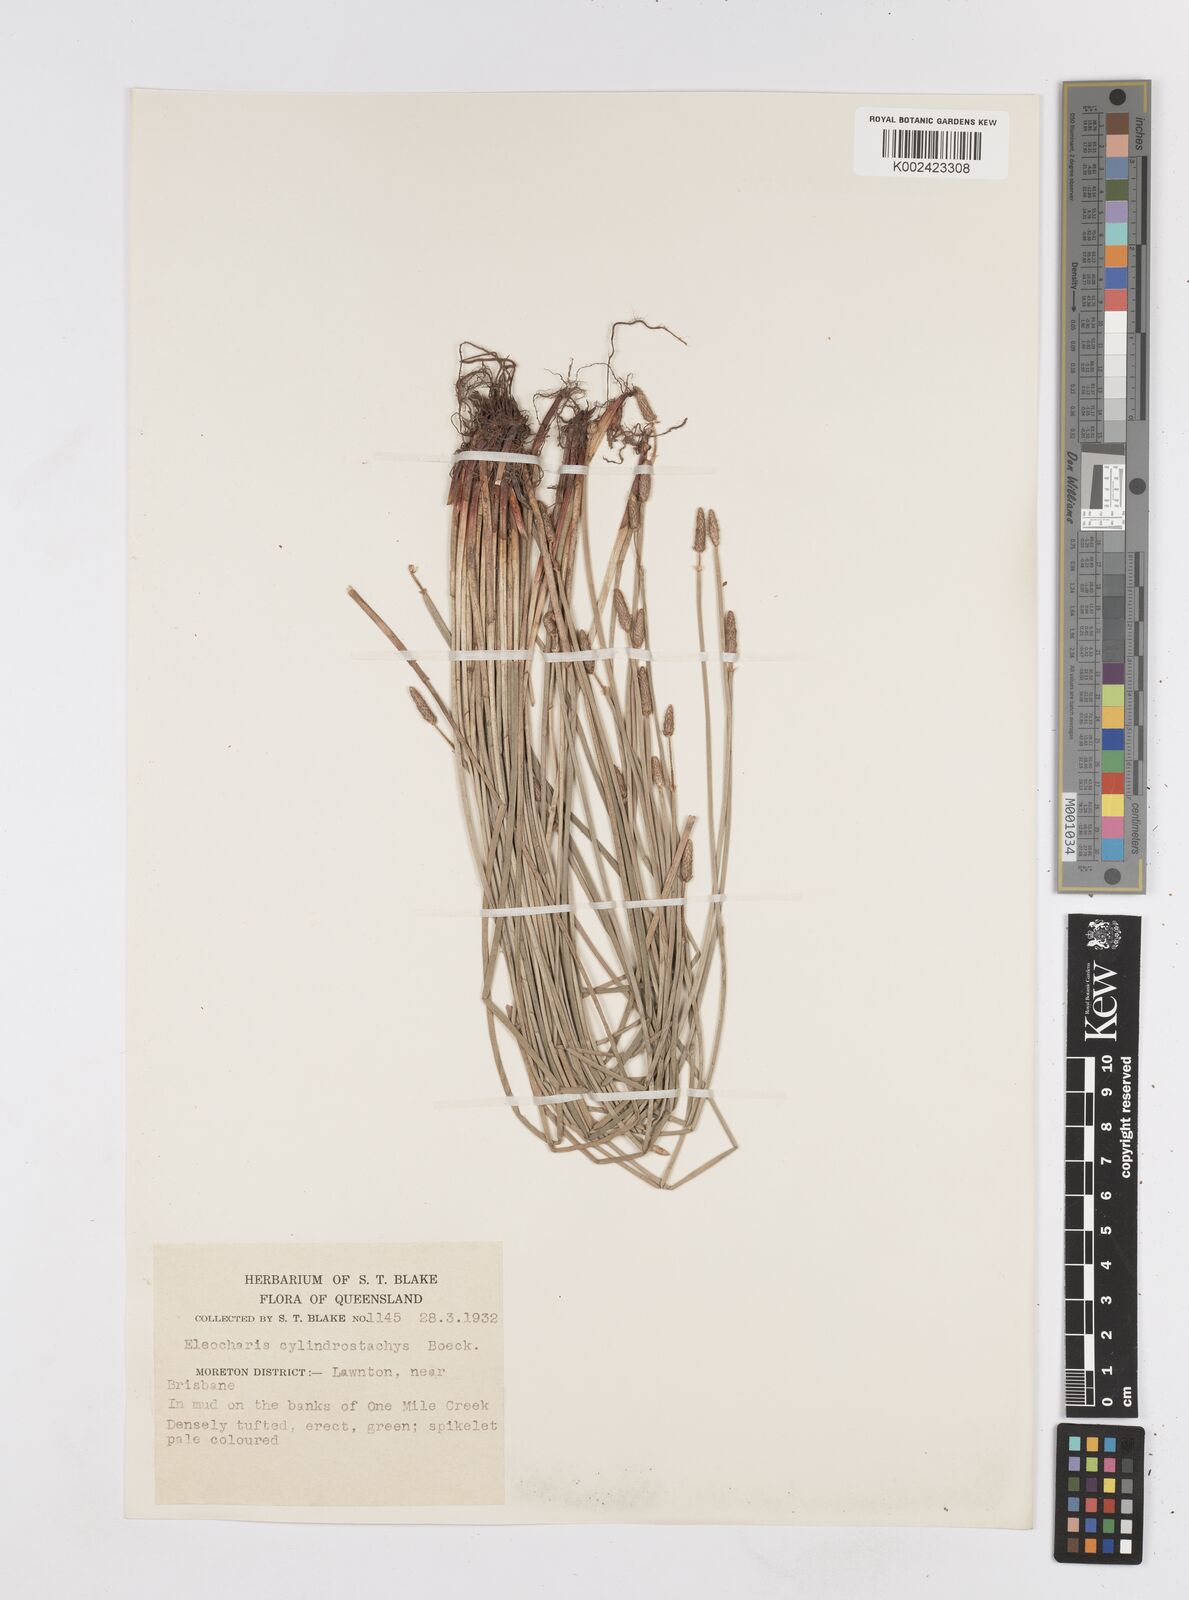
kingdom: Plantae
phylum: Tracheophyta
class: Liliopsida
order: Poales
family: Cyperaceae
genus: Eleocharis
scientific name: Eleocharis cylindrostachys
